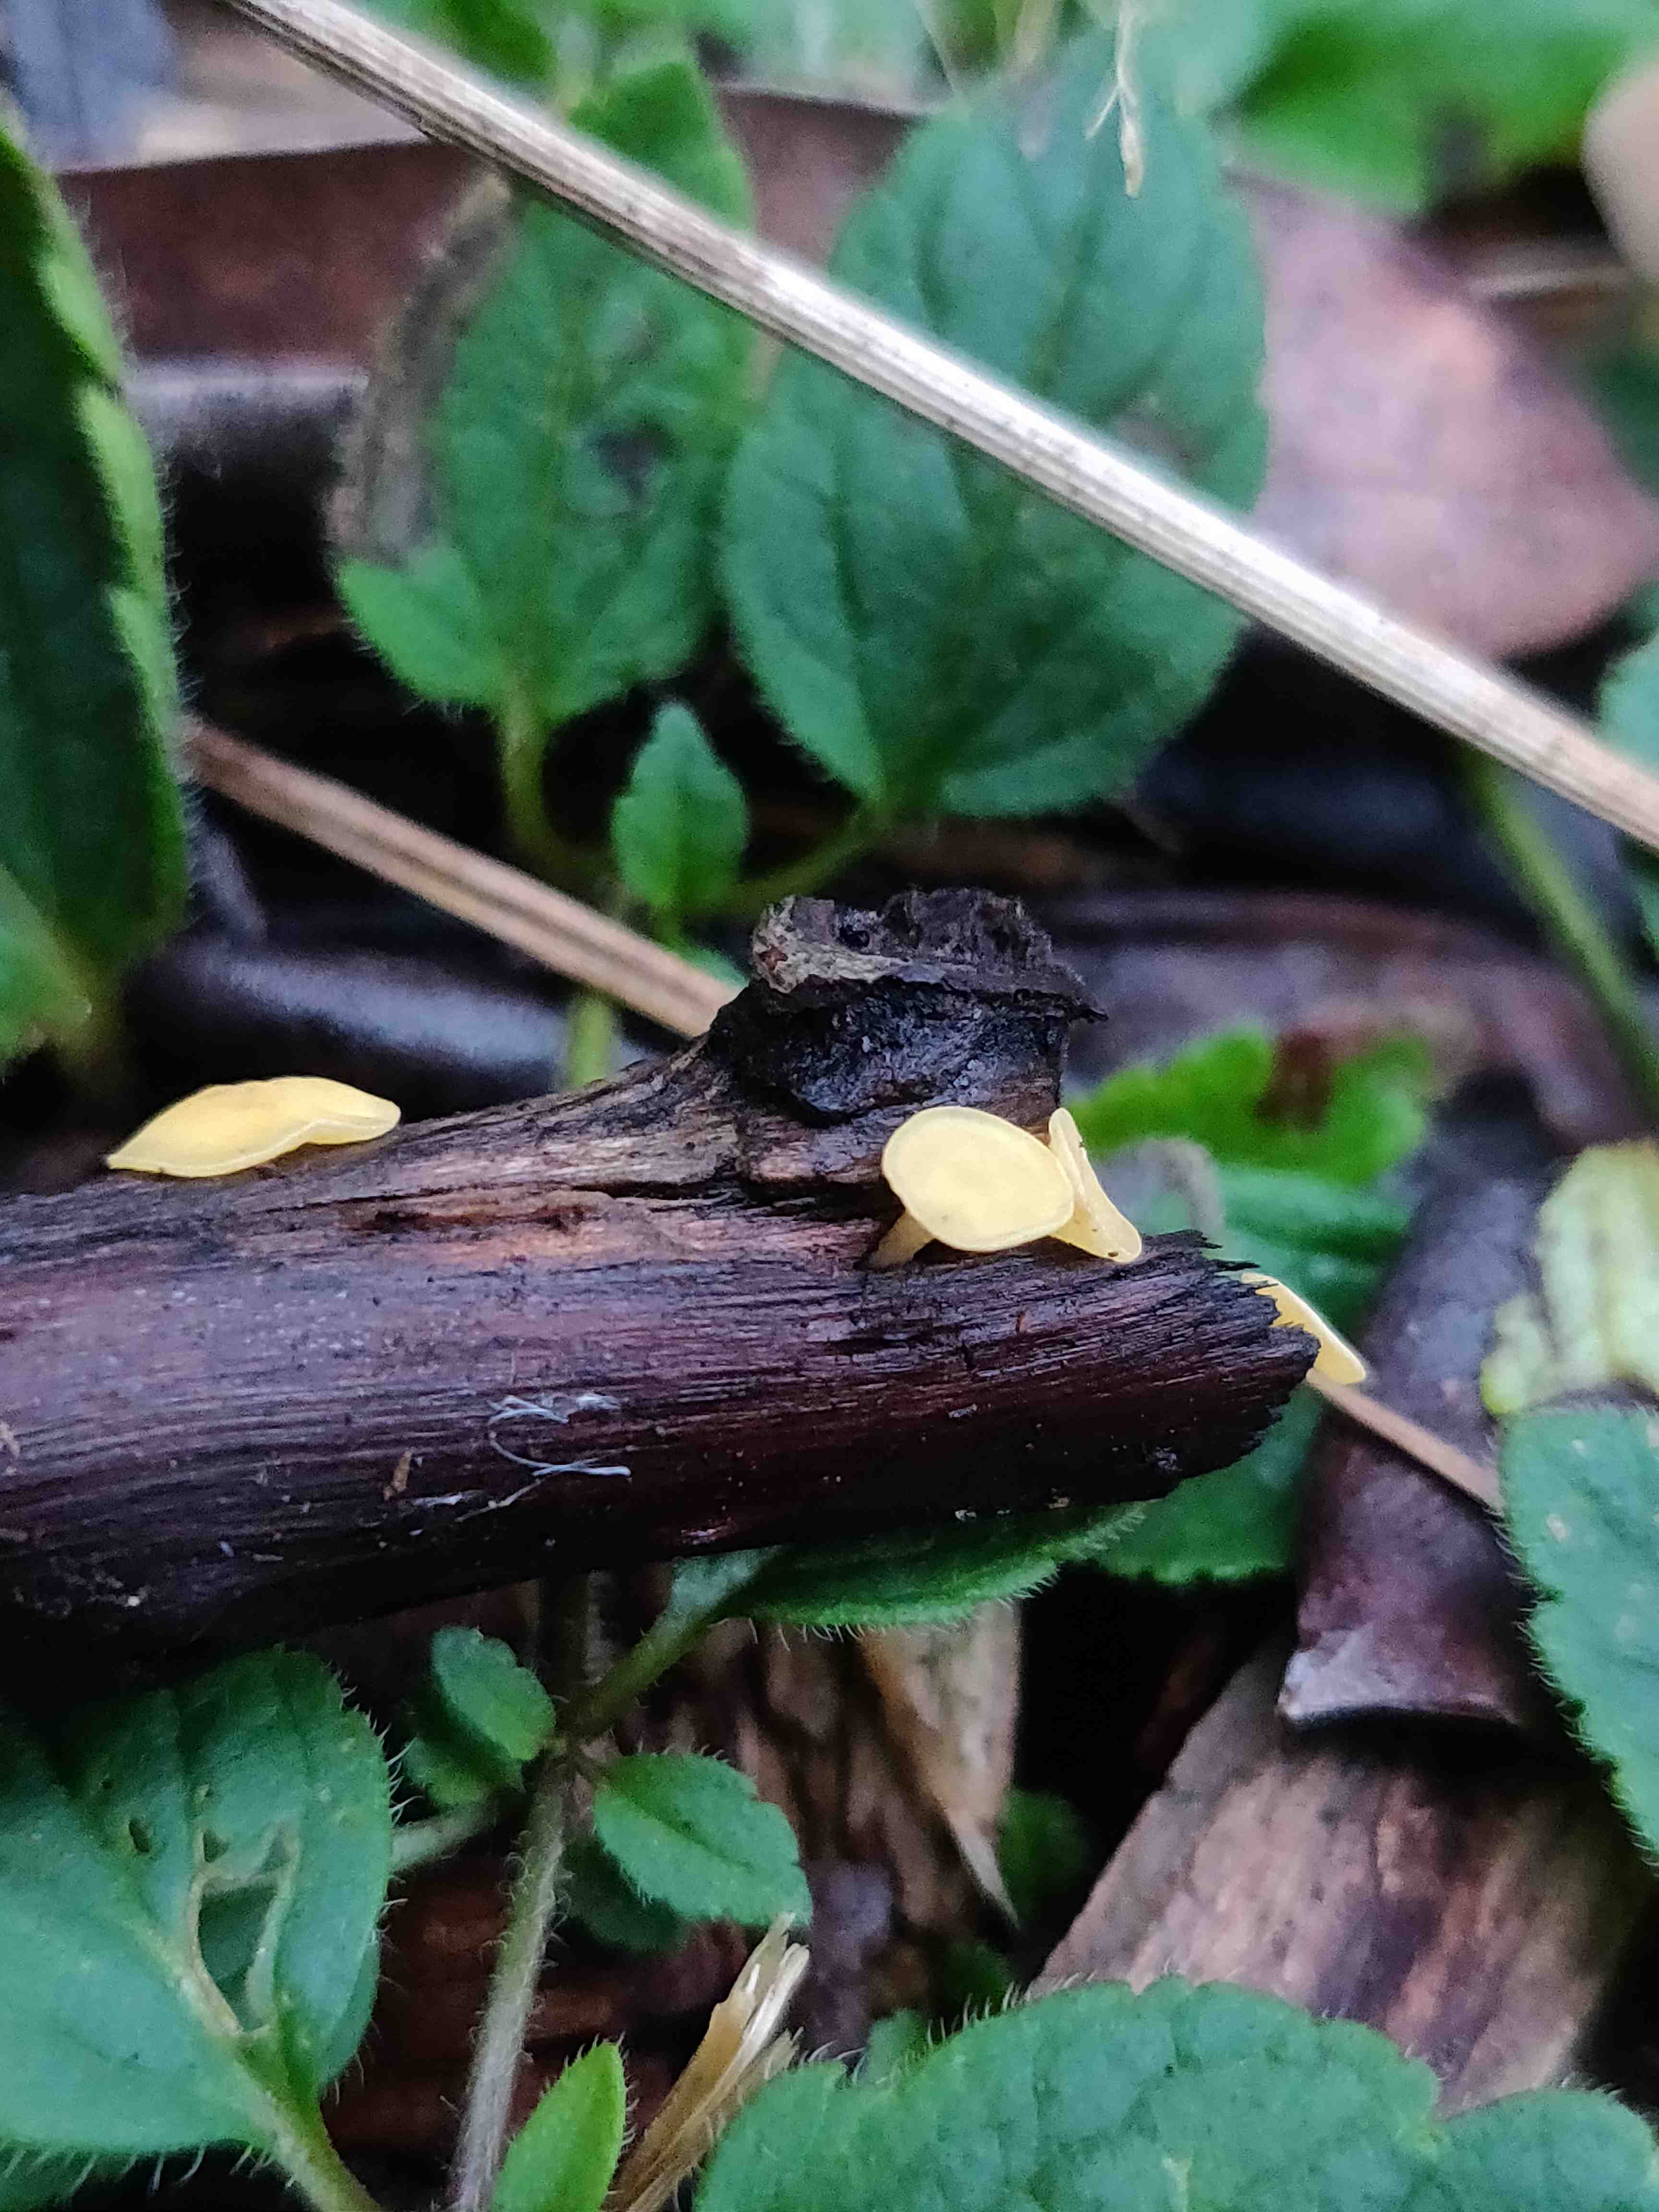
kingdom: Fungi
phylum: Ascomycota
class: Leotiomycetes
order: Helotiales
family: Helotiaceae
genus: Hymenoscyphus
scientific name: Hymenoscyphus
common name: stilkskive
